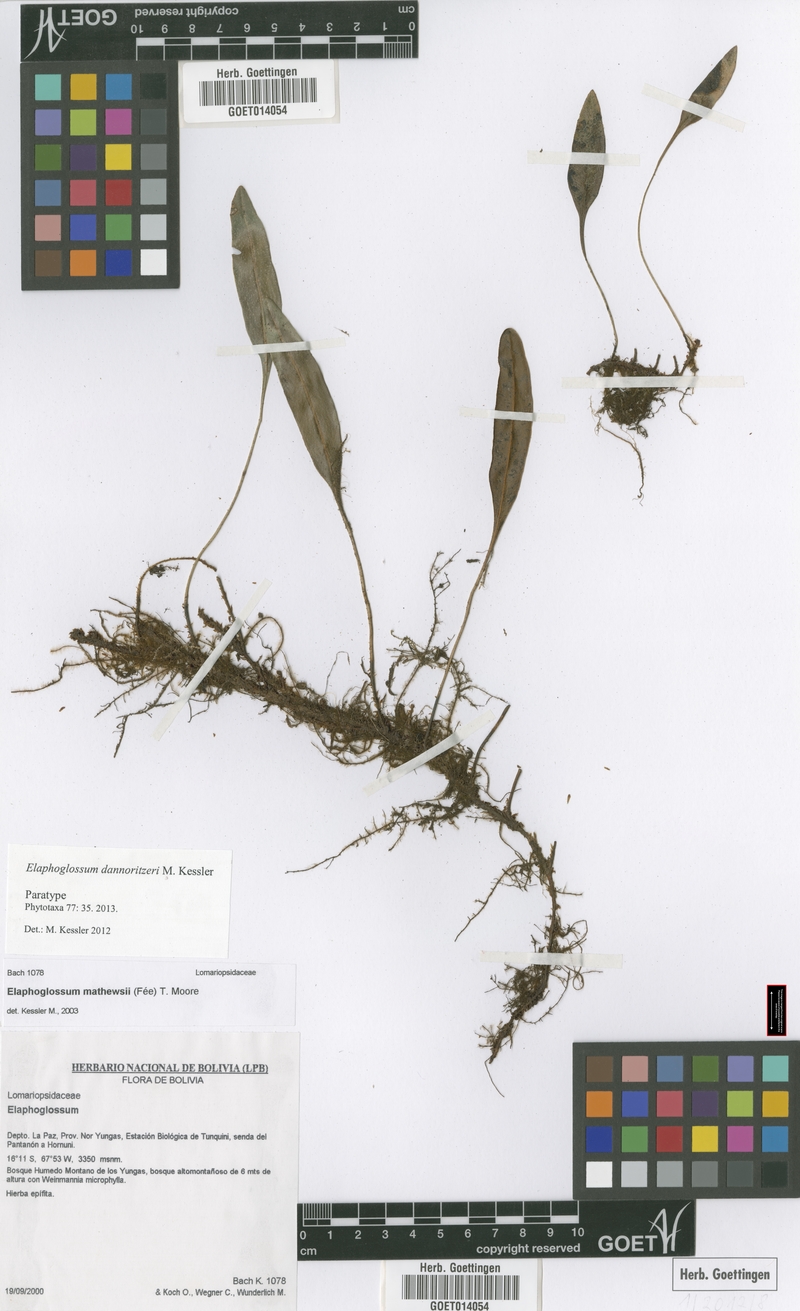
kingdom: Plantae
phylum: Tracheophyta
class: Polypodiopsida
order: Polypodiales
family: Dryopteridaceae
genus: Elaphoglossum
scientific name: Elaphoglossum dannoritzeri
